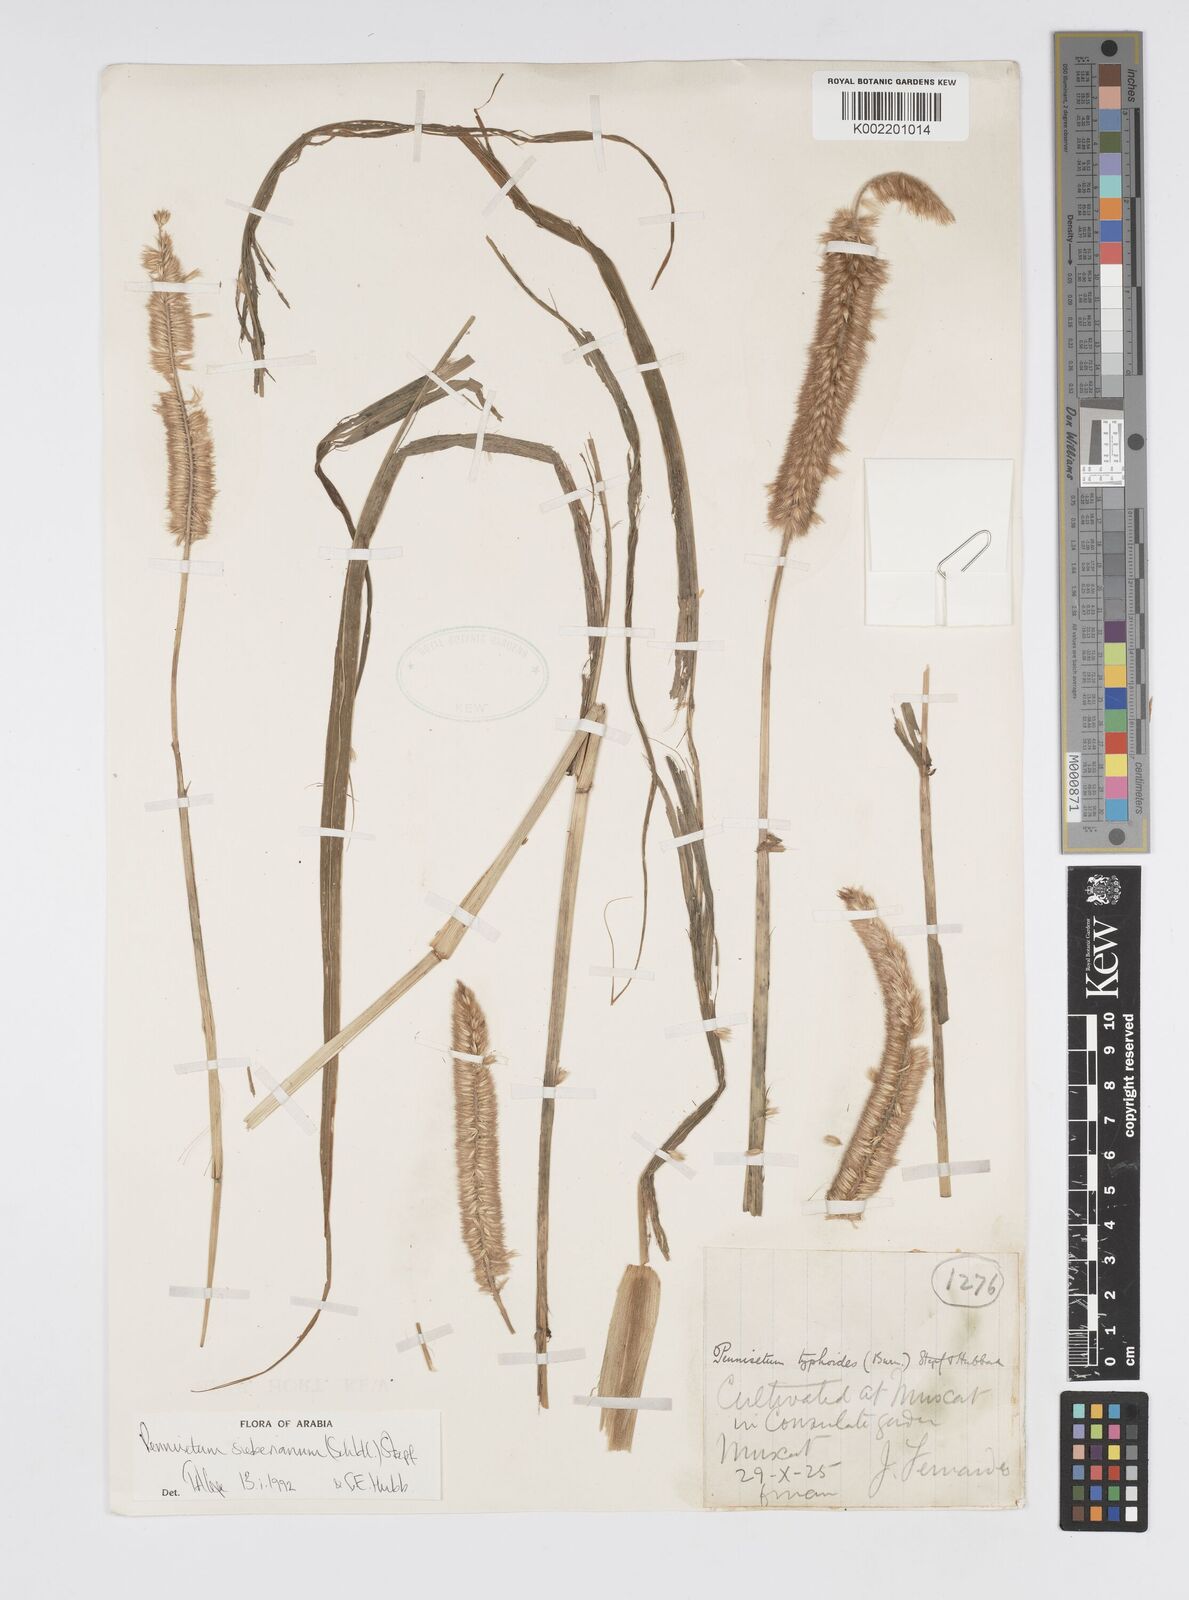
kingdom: Plantae
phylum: Tracheophyta
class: Liliopsida
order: Poales
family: Poaceae
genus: Cenchrus
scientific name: Cenchrus sieberianus
